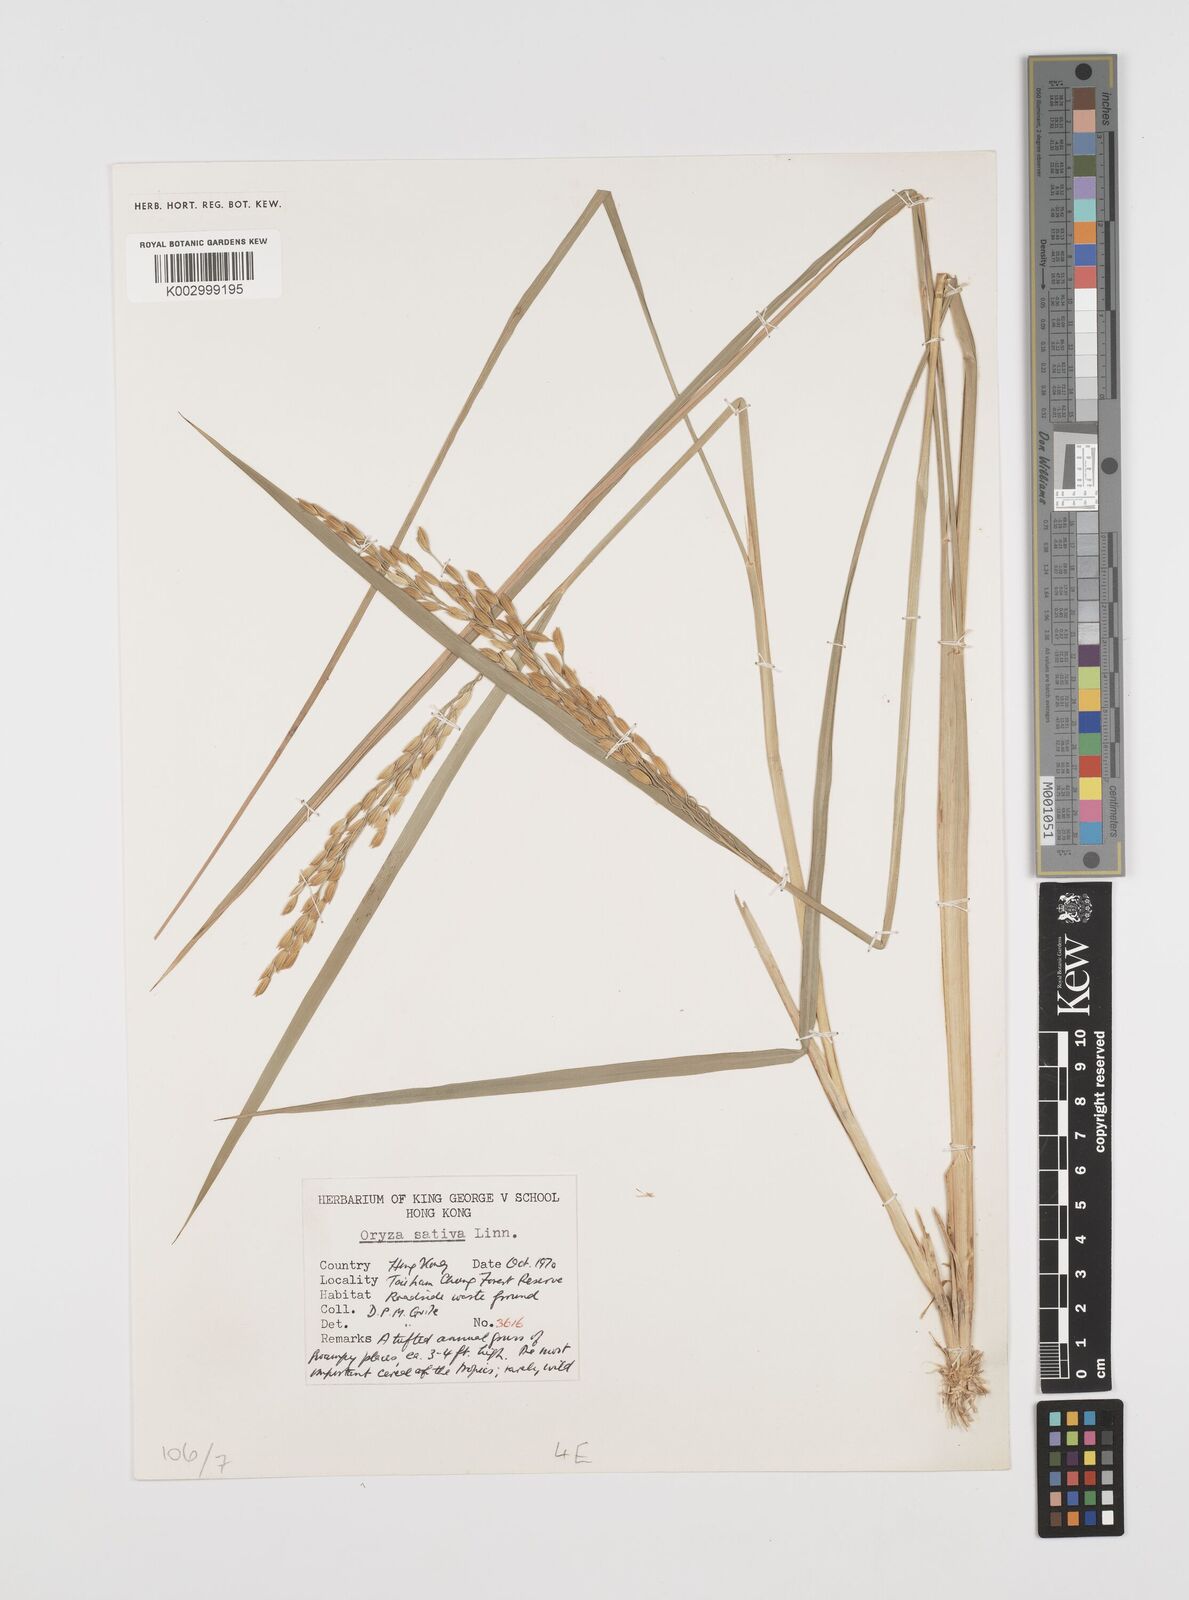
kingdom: Plantae
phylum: Tracheophyta
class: Liliopsida
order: Poales
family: Poaceae
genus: Oryza
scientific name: Oryza sativa
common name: Rice
